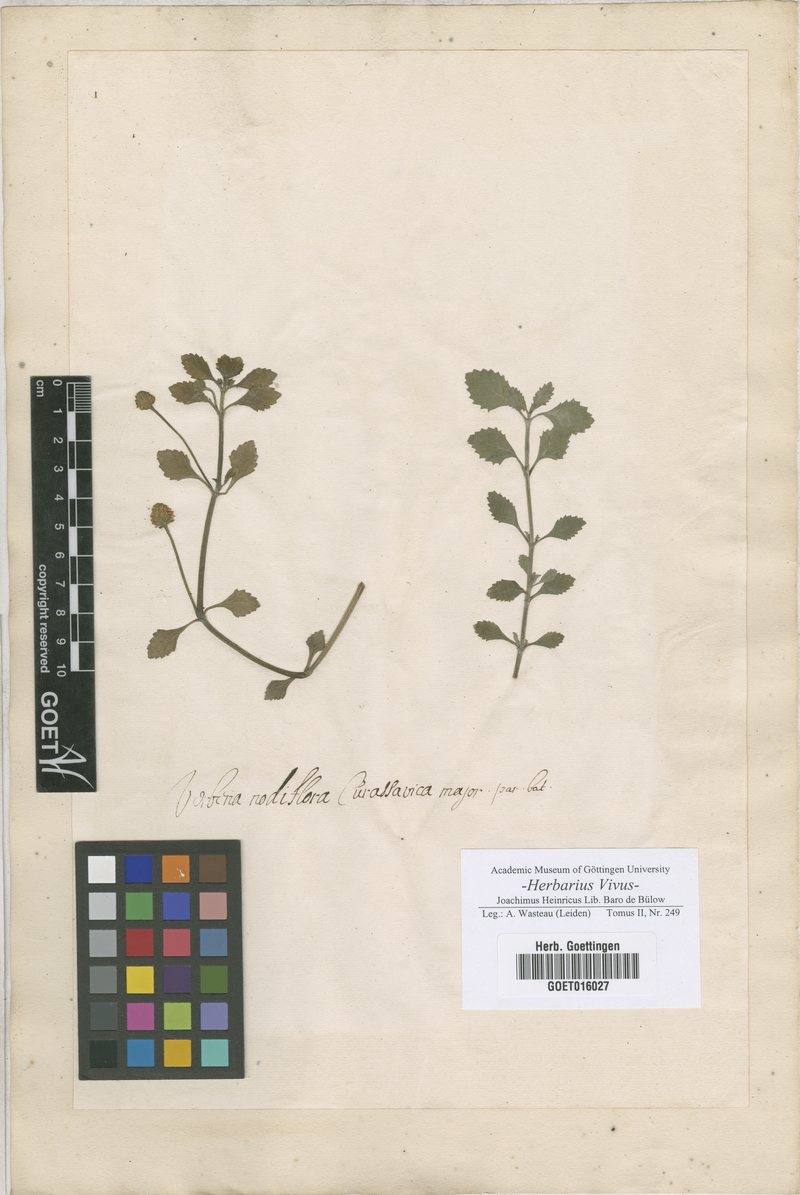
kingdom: Plantae
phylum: Tracheophyta
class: Magnoliopsida
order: Lamiales
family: Verbenaceae
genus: Verbena
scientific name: Verbena
